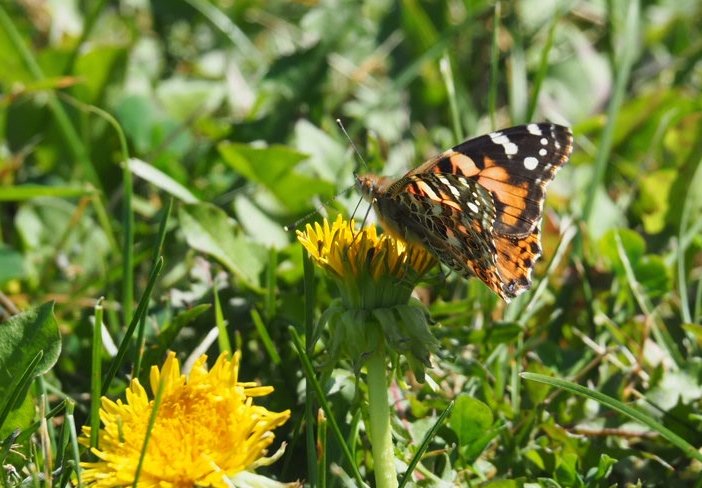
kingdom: Animalia
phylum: Arthropoda
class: Insecta
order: Lepidoptera
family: Nymphalidae
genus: Vanessa
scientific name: Vanessa cardui
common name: Painted Lady
